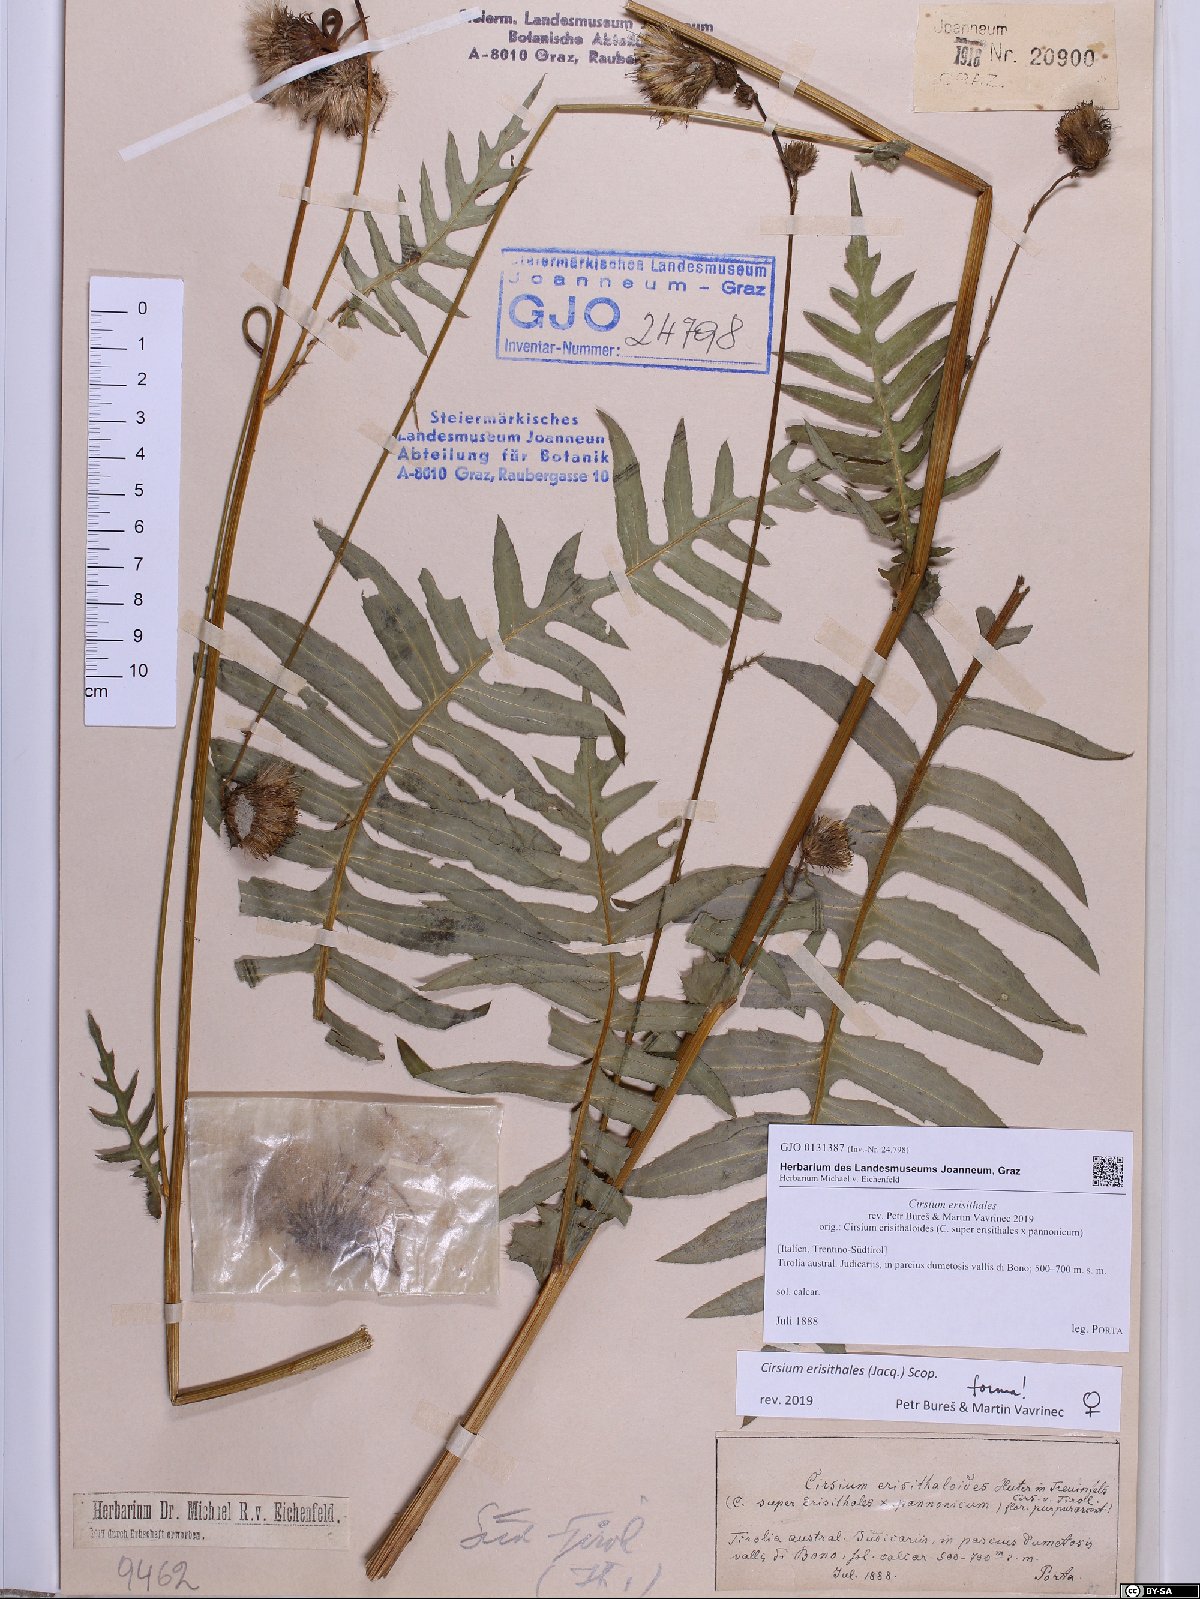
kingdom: Plantae
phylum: Tracheophyta
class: Magnoliopsida
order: Asterales
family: Asteraceae
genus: Cirsium
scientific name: Cirsium erisithales
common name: Yellow thistle
